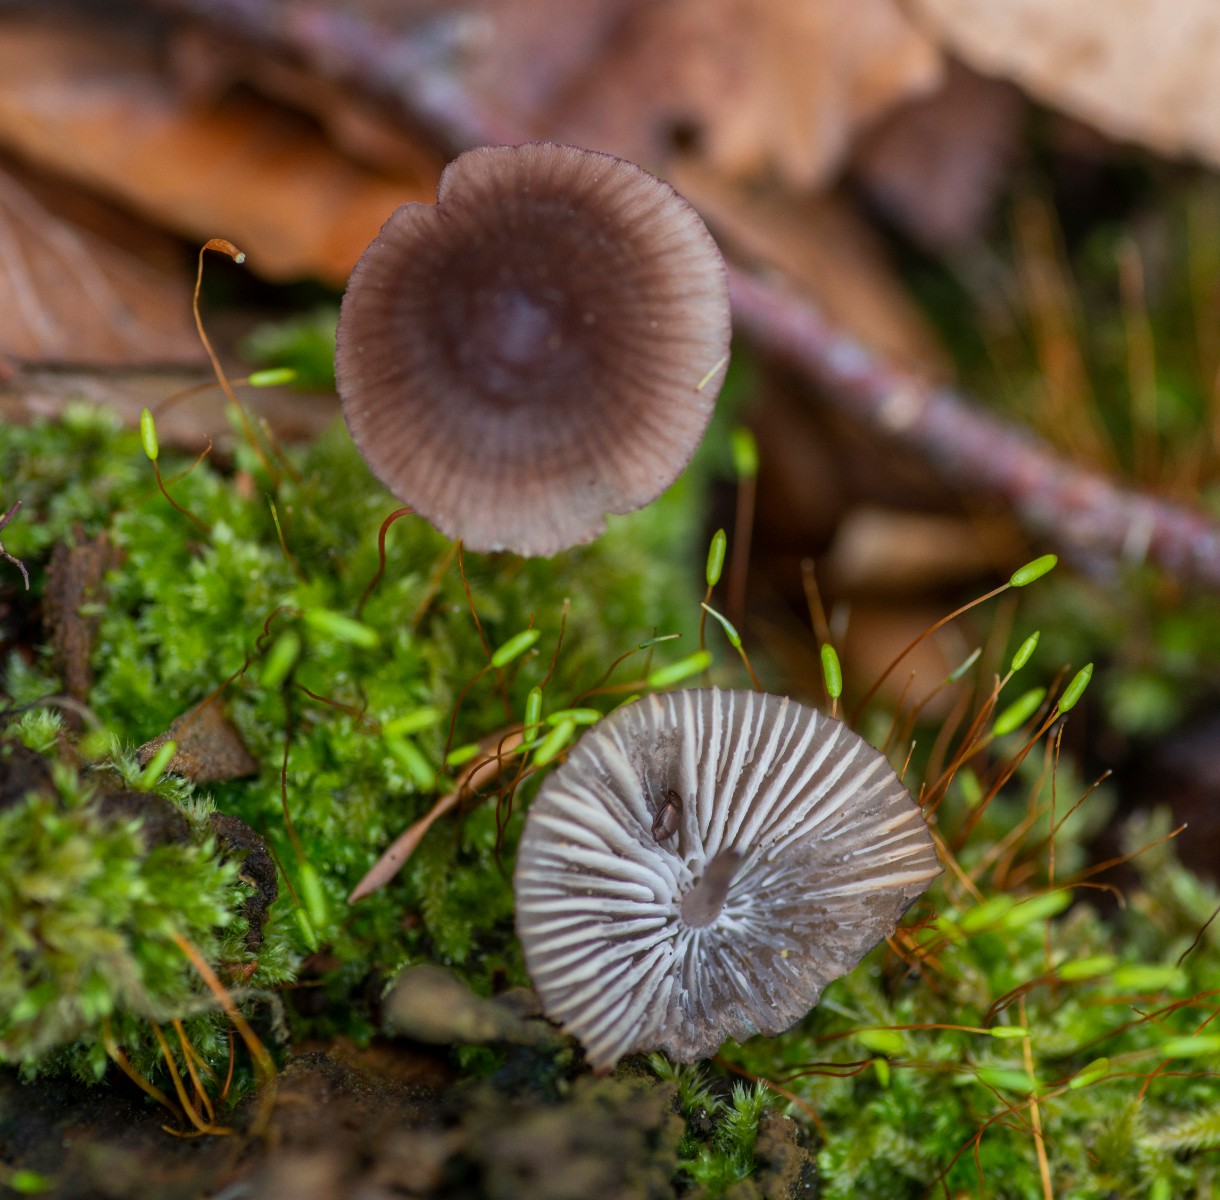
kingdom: Fungi
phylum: Basidiomycota
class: Agaricomycetes
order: Agaricales
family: Mycenaceae
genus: Mycena
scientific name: Mycena purpureofusca
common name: purpur-huesvamp
